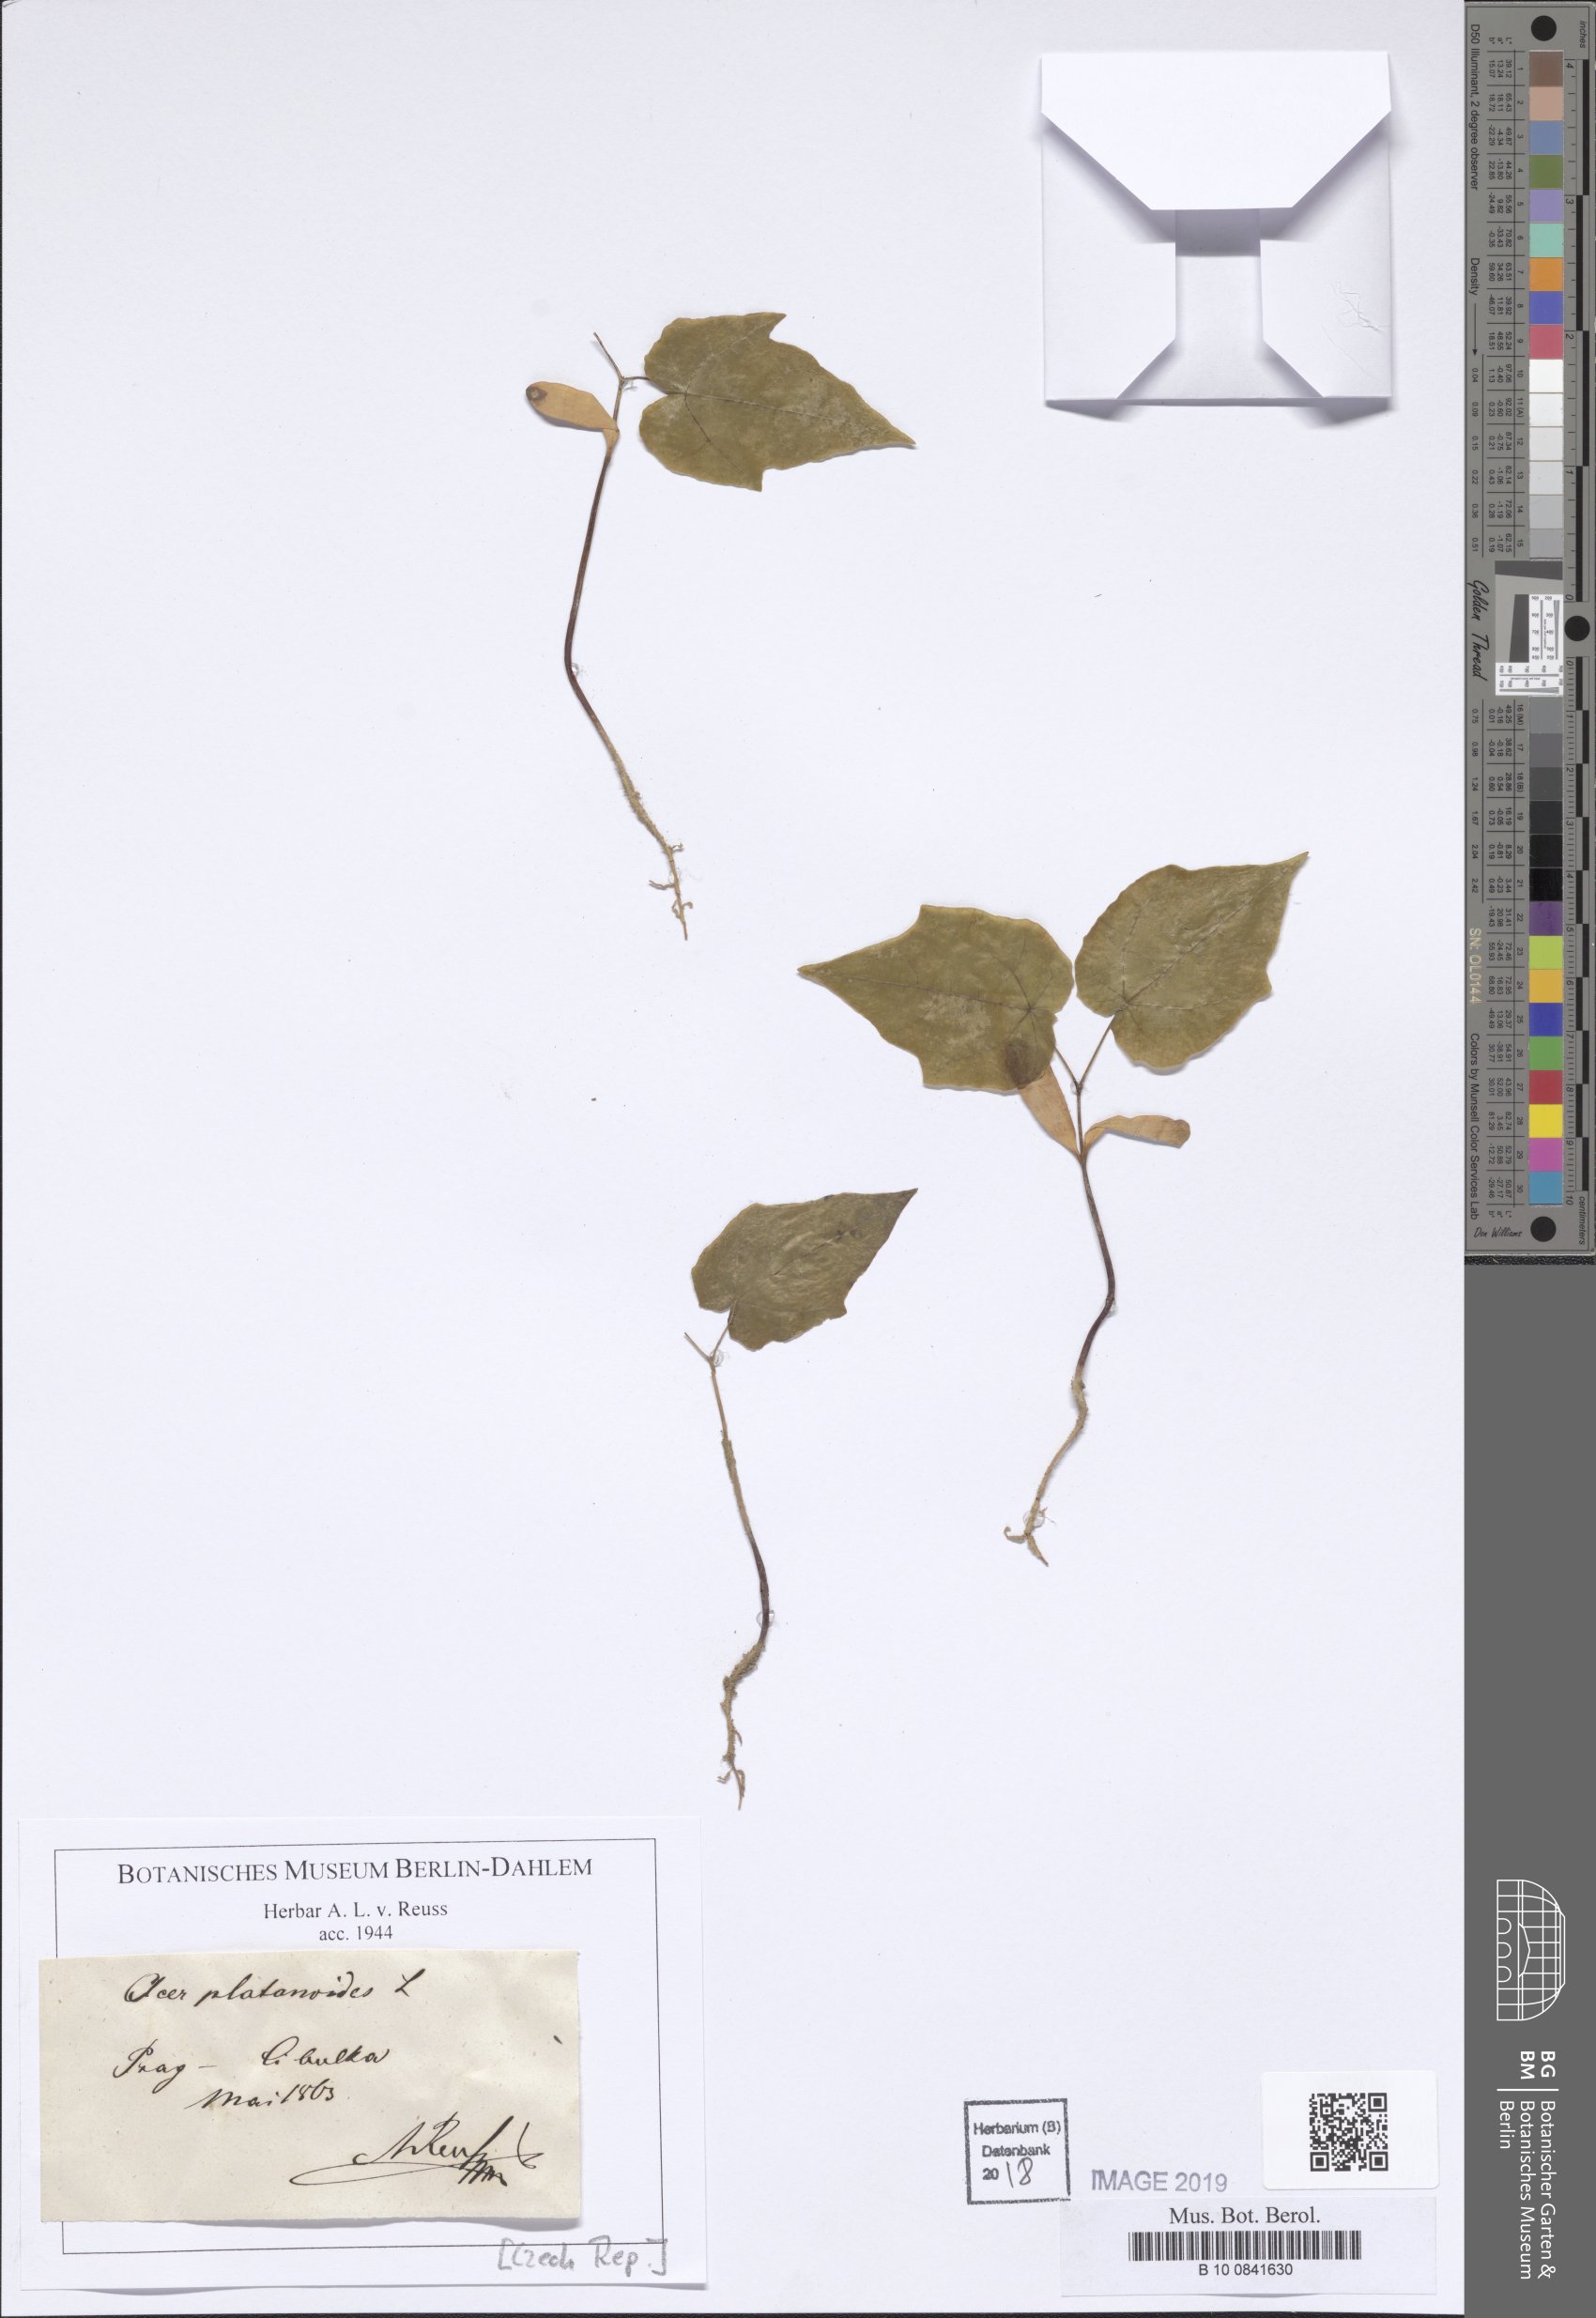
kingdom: Plantae
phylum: Tracheophyta
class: Magnoliopsida
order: Sapindales
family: Sapindaceae
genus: Acer
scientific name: Acer platanoides
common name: Norway maple
